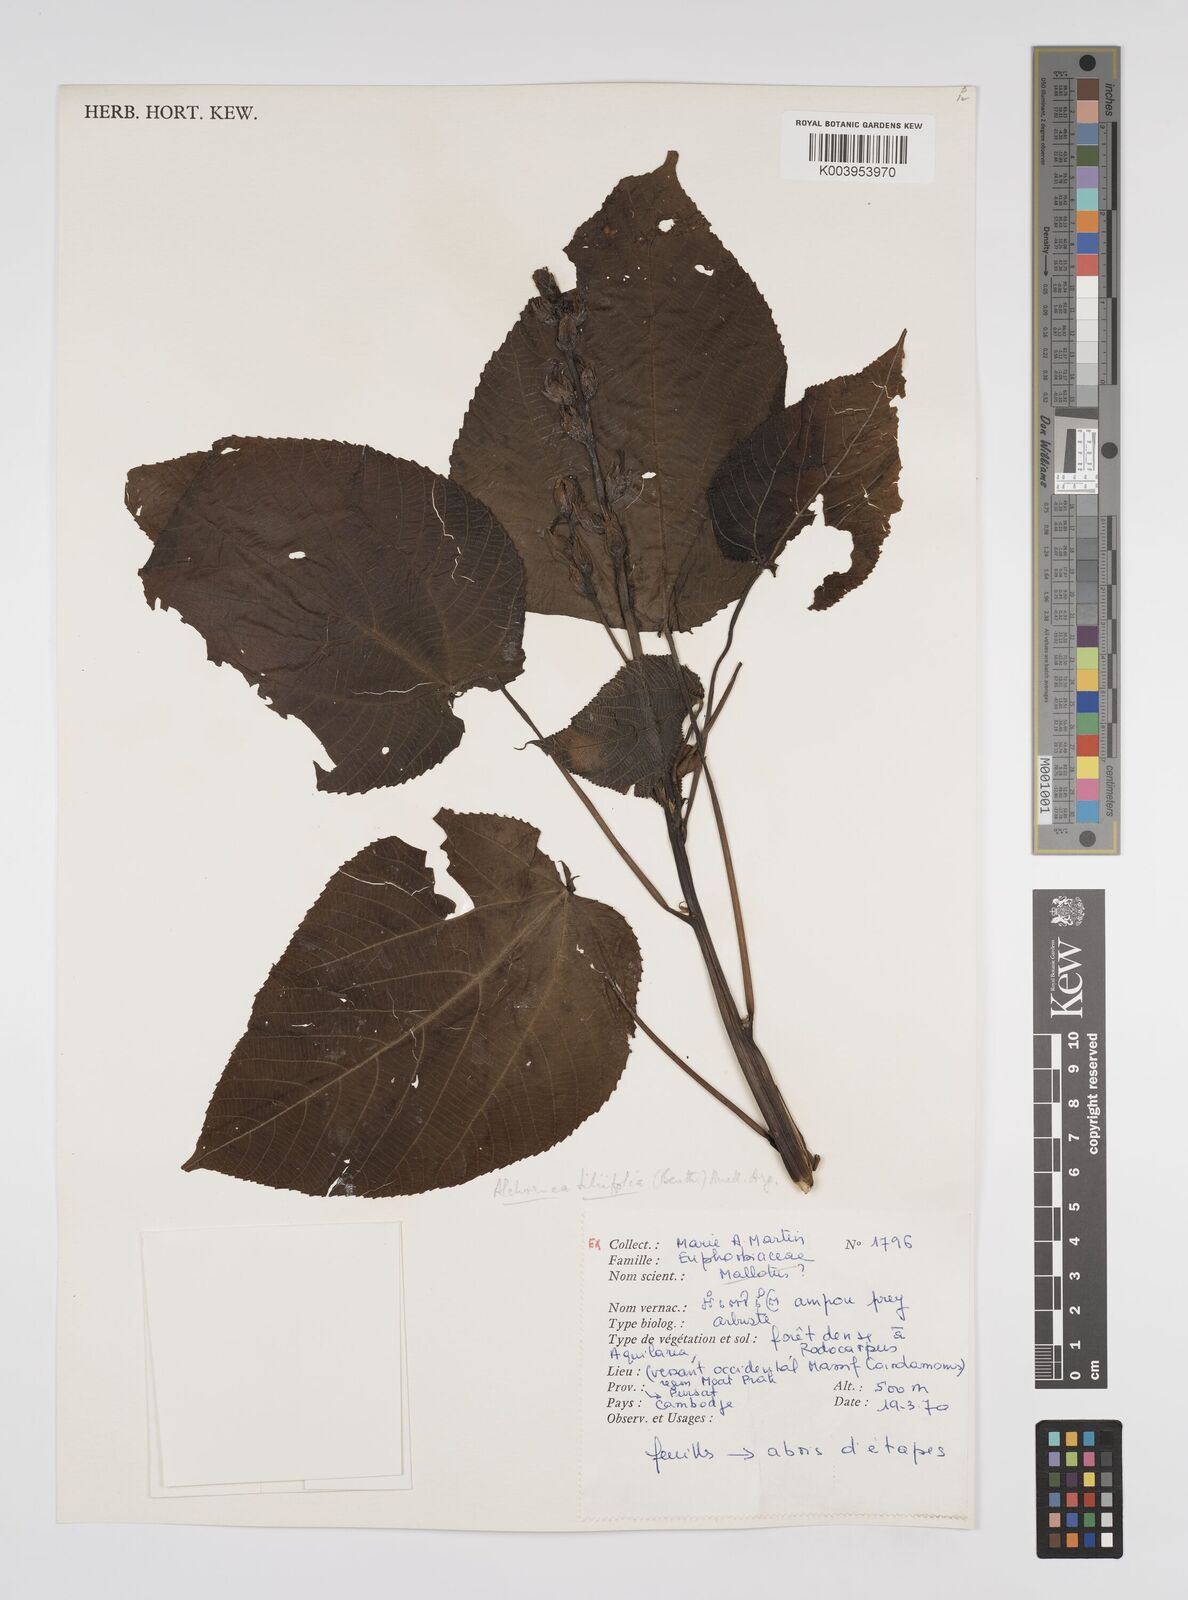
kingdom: Plantae
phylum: Tracheophyta
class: Magnoliopsida
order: Malpighiales
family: Euphorbiaceae
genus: Alchornea
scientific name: Alchornea tiliifolia
